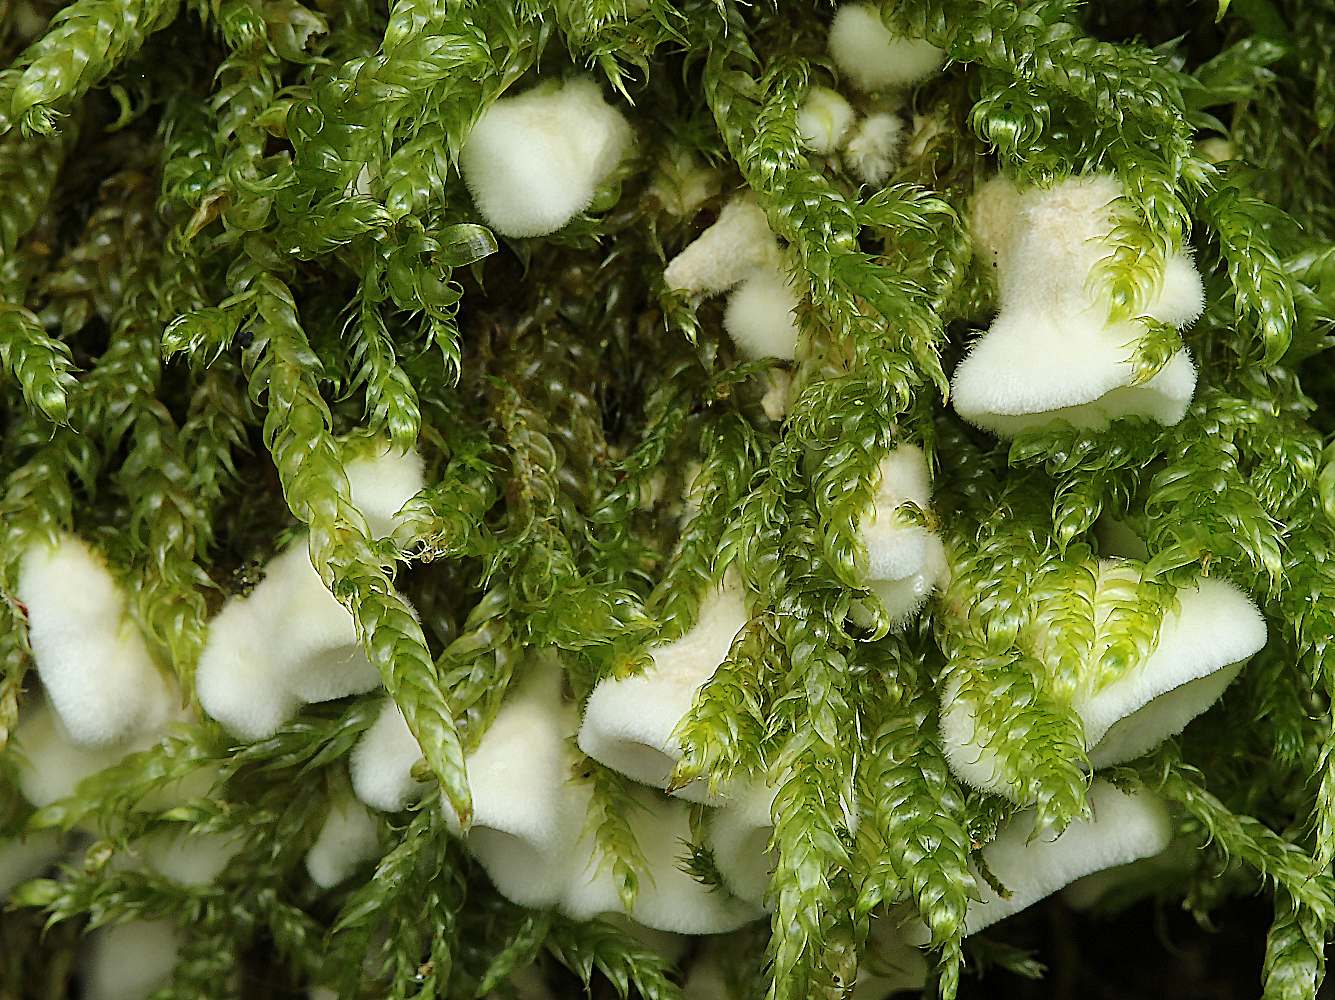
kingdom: Fungi
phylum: Basidiomycota
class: Agaricomycetes
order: Amylocorticiales
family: Amylocorticiaceae
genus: Plicaturopsis
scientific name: Plicaturopsis crispa
